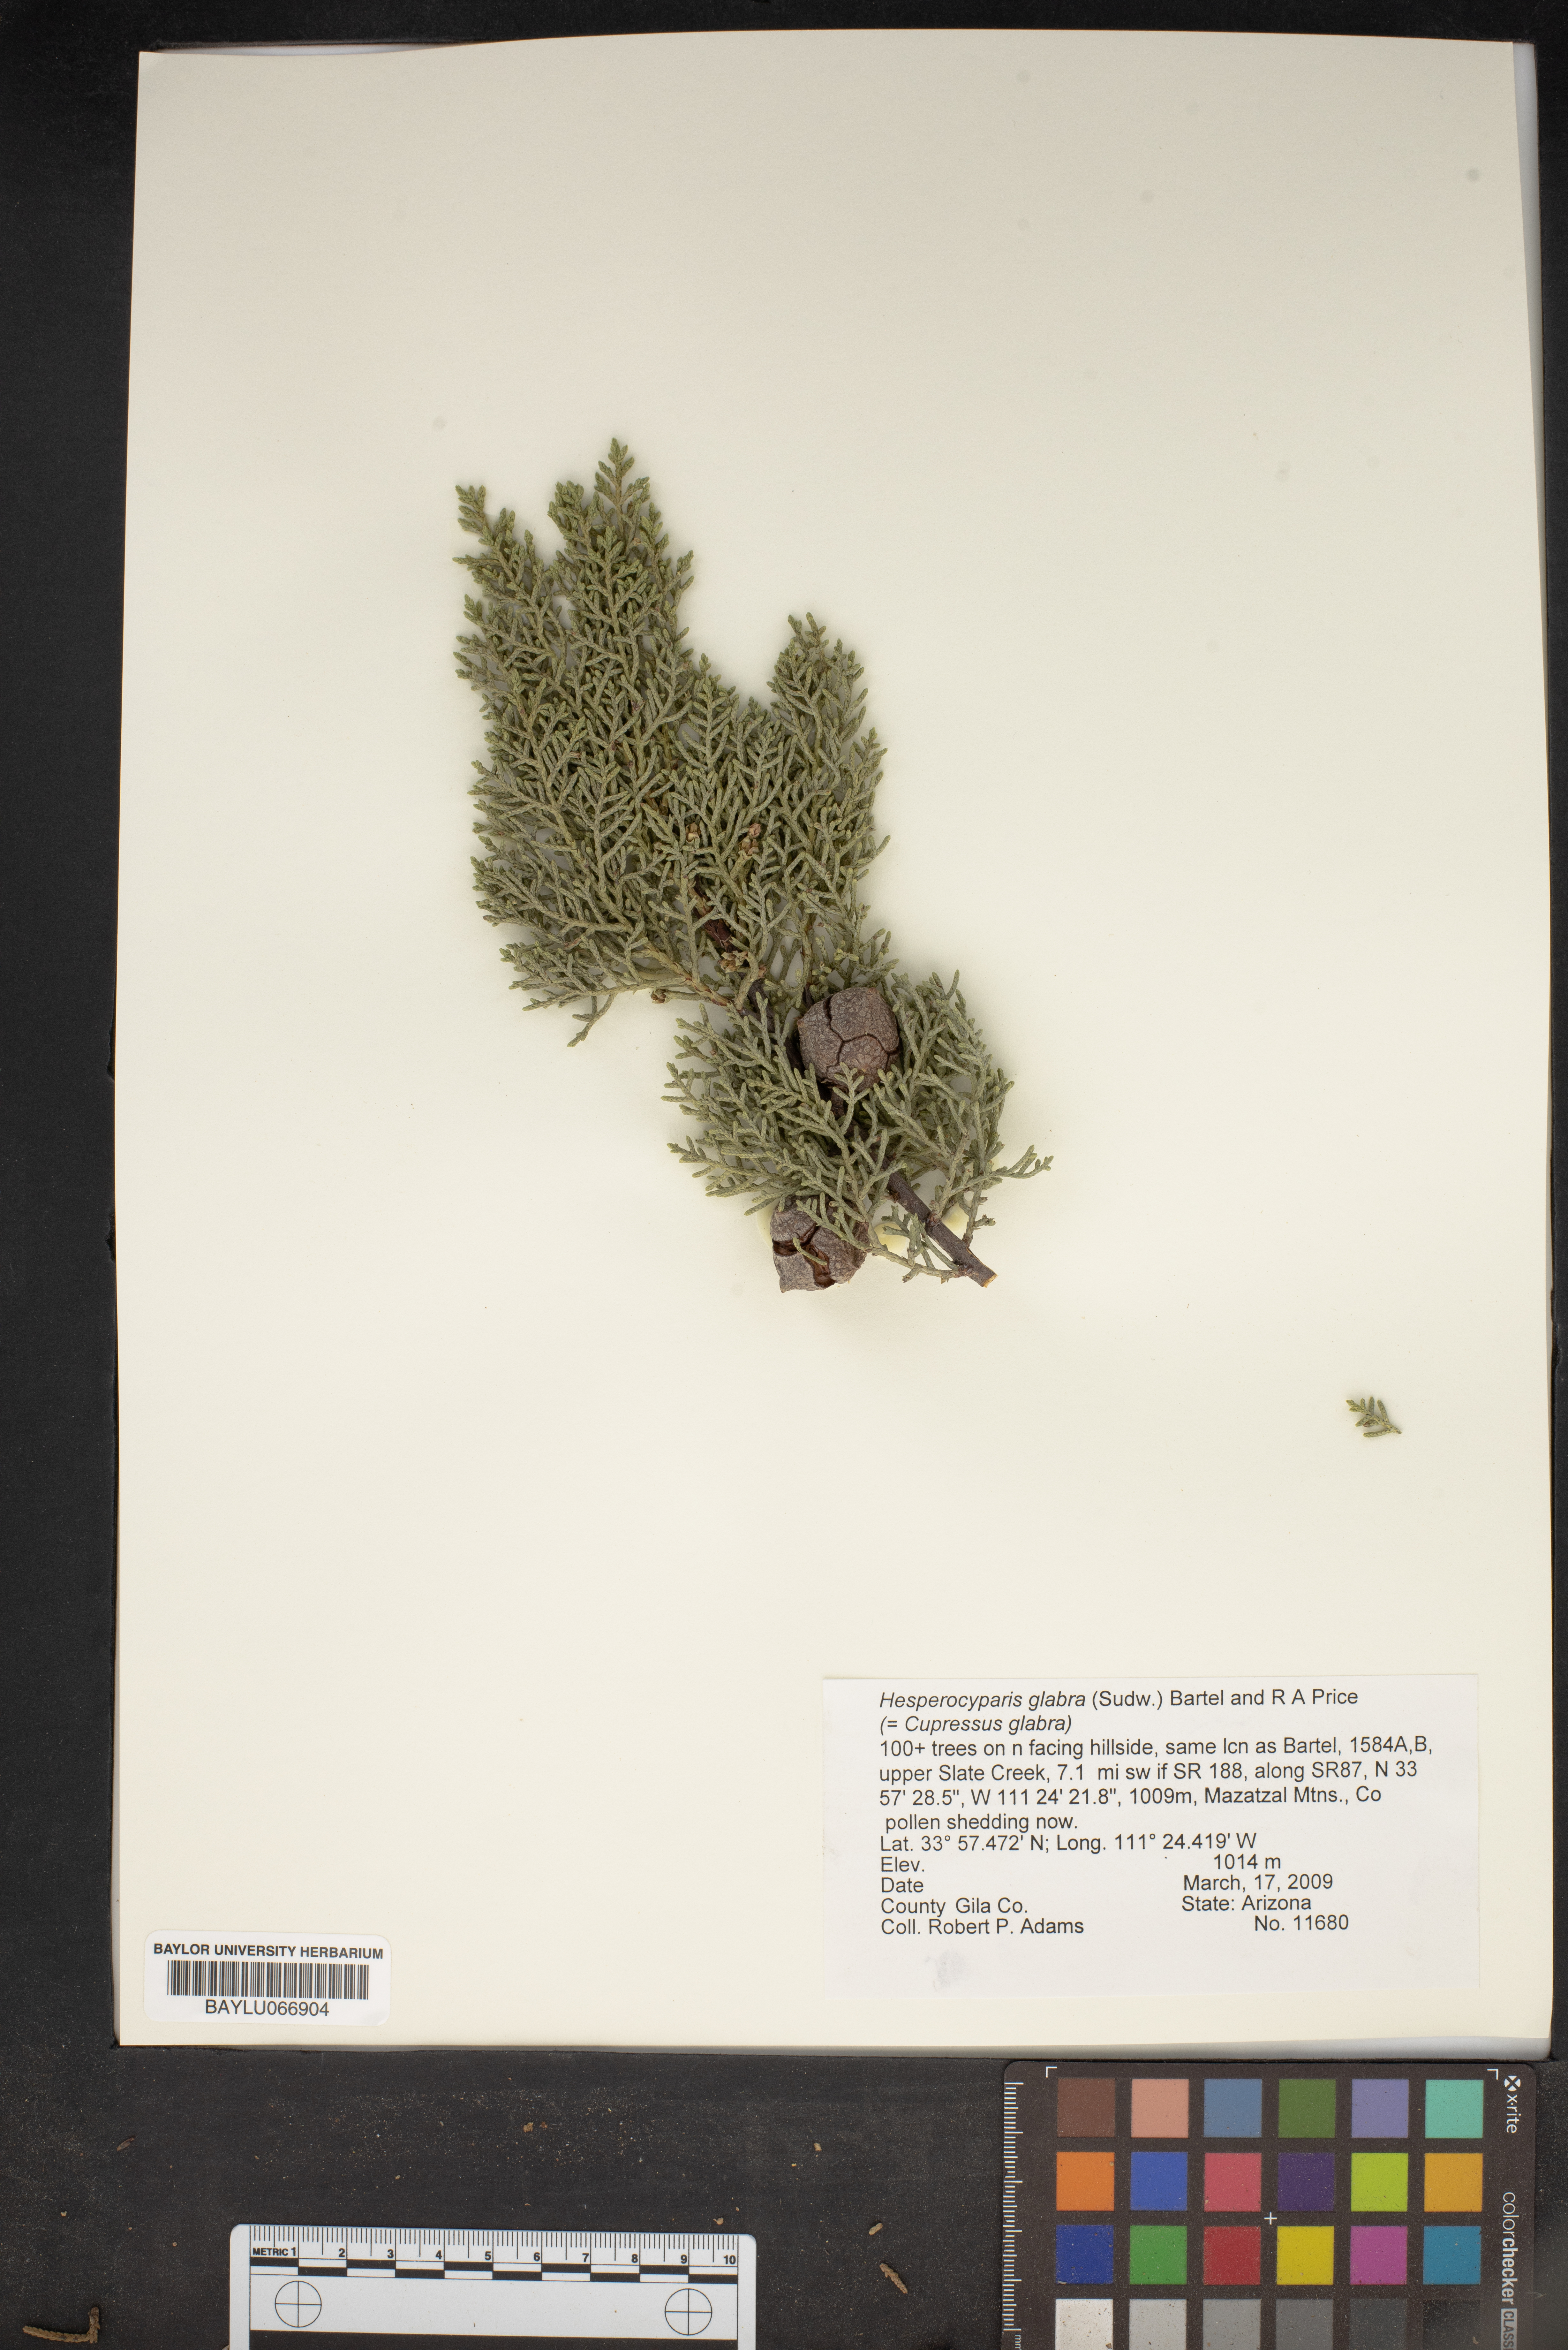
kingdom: Plantae
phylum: Tracheophyta
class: Pinopsida
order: Pinales
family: Cupressaceae
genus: Cupressus
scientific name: Cupressus arizonica
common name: Arizona cypress
